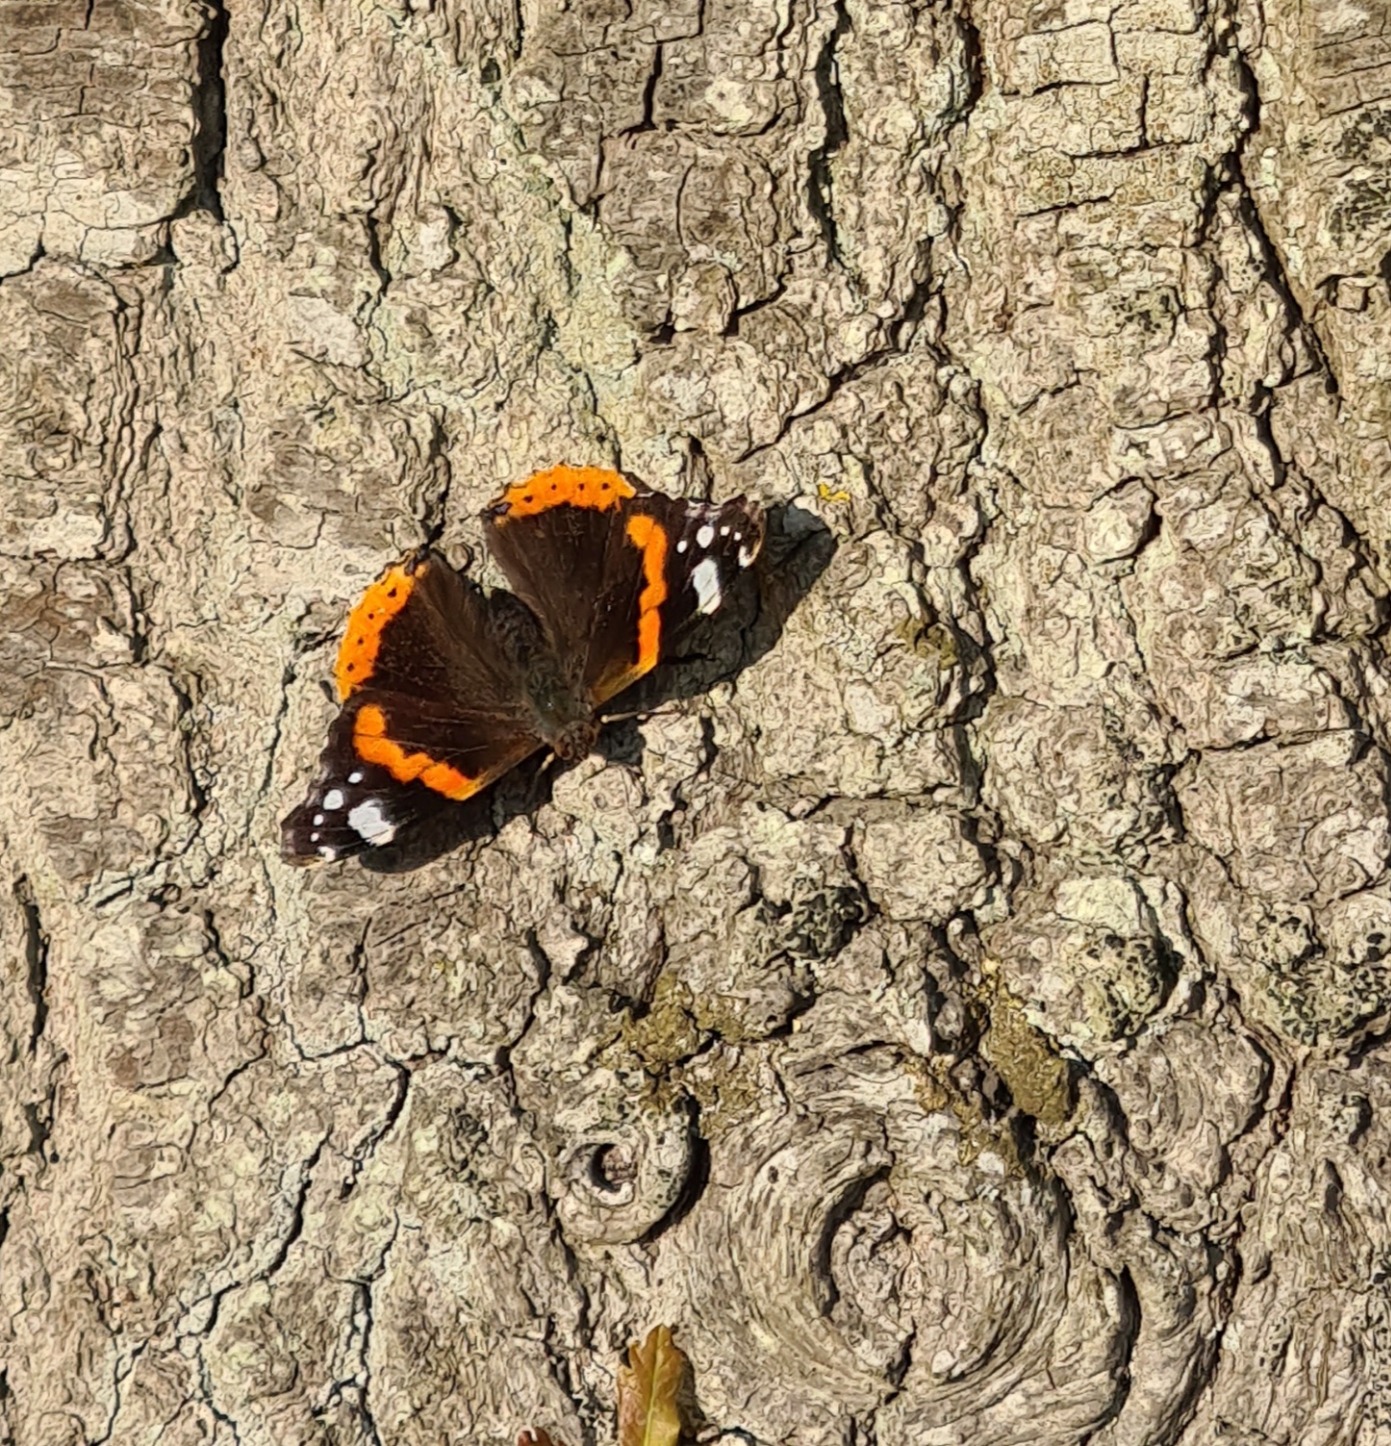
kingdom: Animalia
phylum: Arthropoda
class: Insecta
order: Lepidoptera
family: Nymphalidae
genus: Vanessa
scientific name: Vanessa atalanta
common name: Admiral
